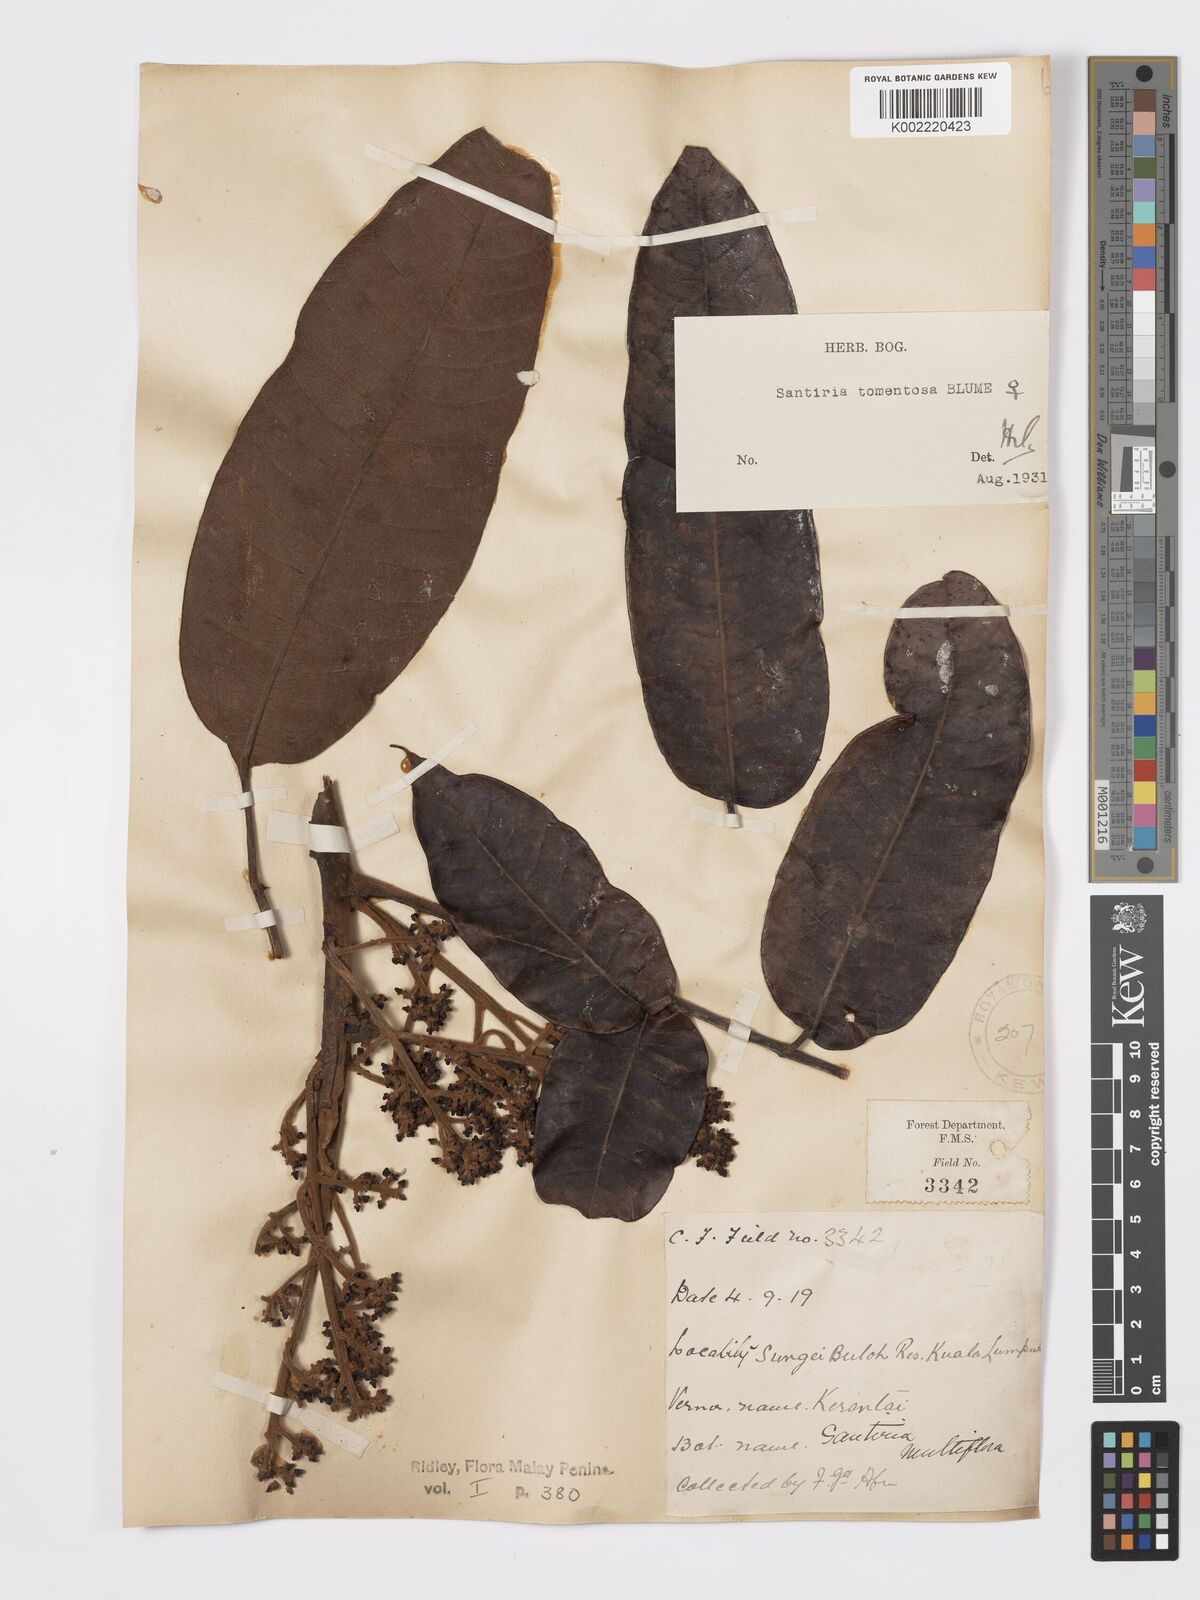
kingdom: Plantae
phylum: Tracheophyta
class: Magnoliopsida
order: Sapindales
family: Burseraceae
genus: Santiria
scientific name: Santiria tomentosa
